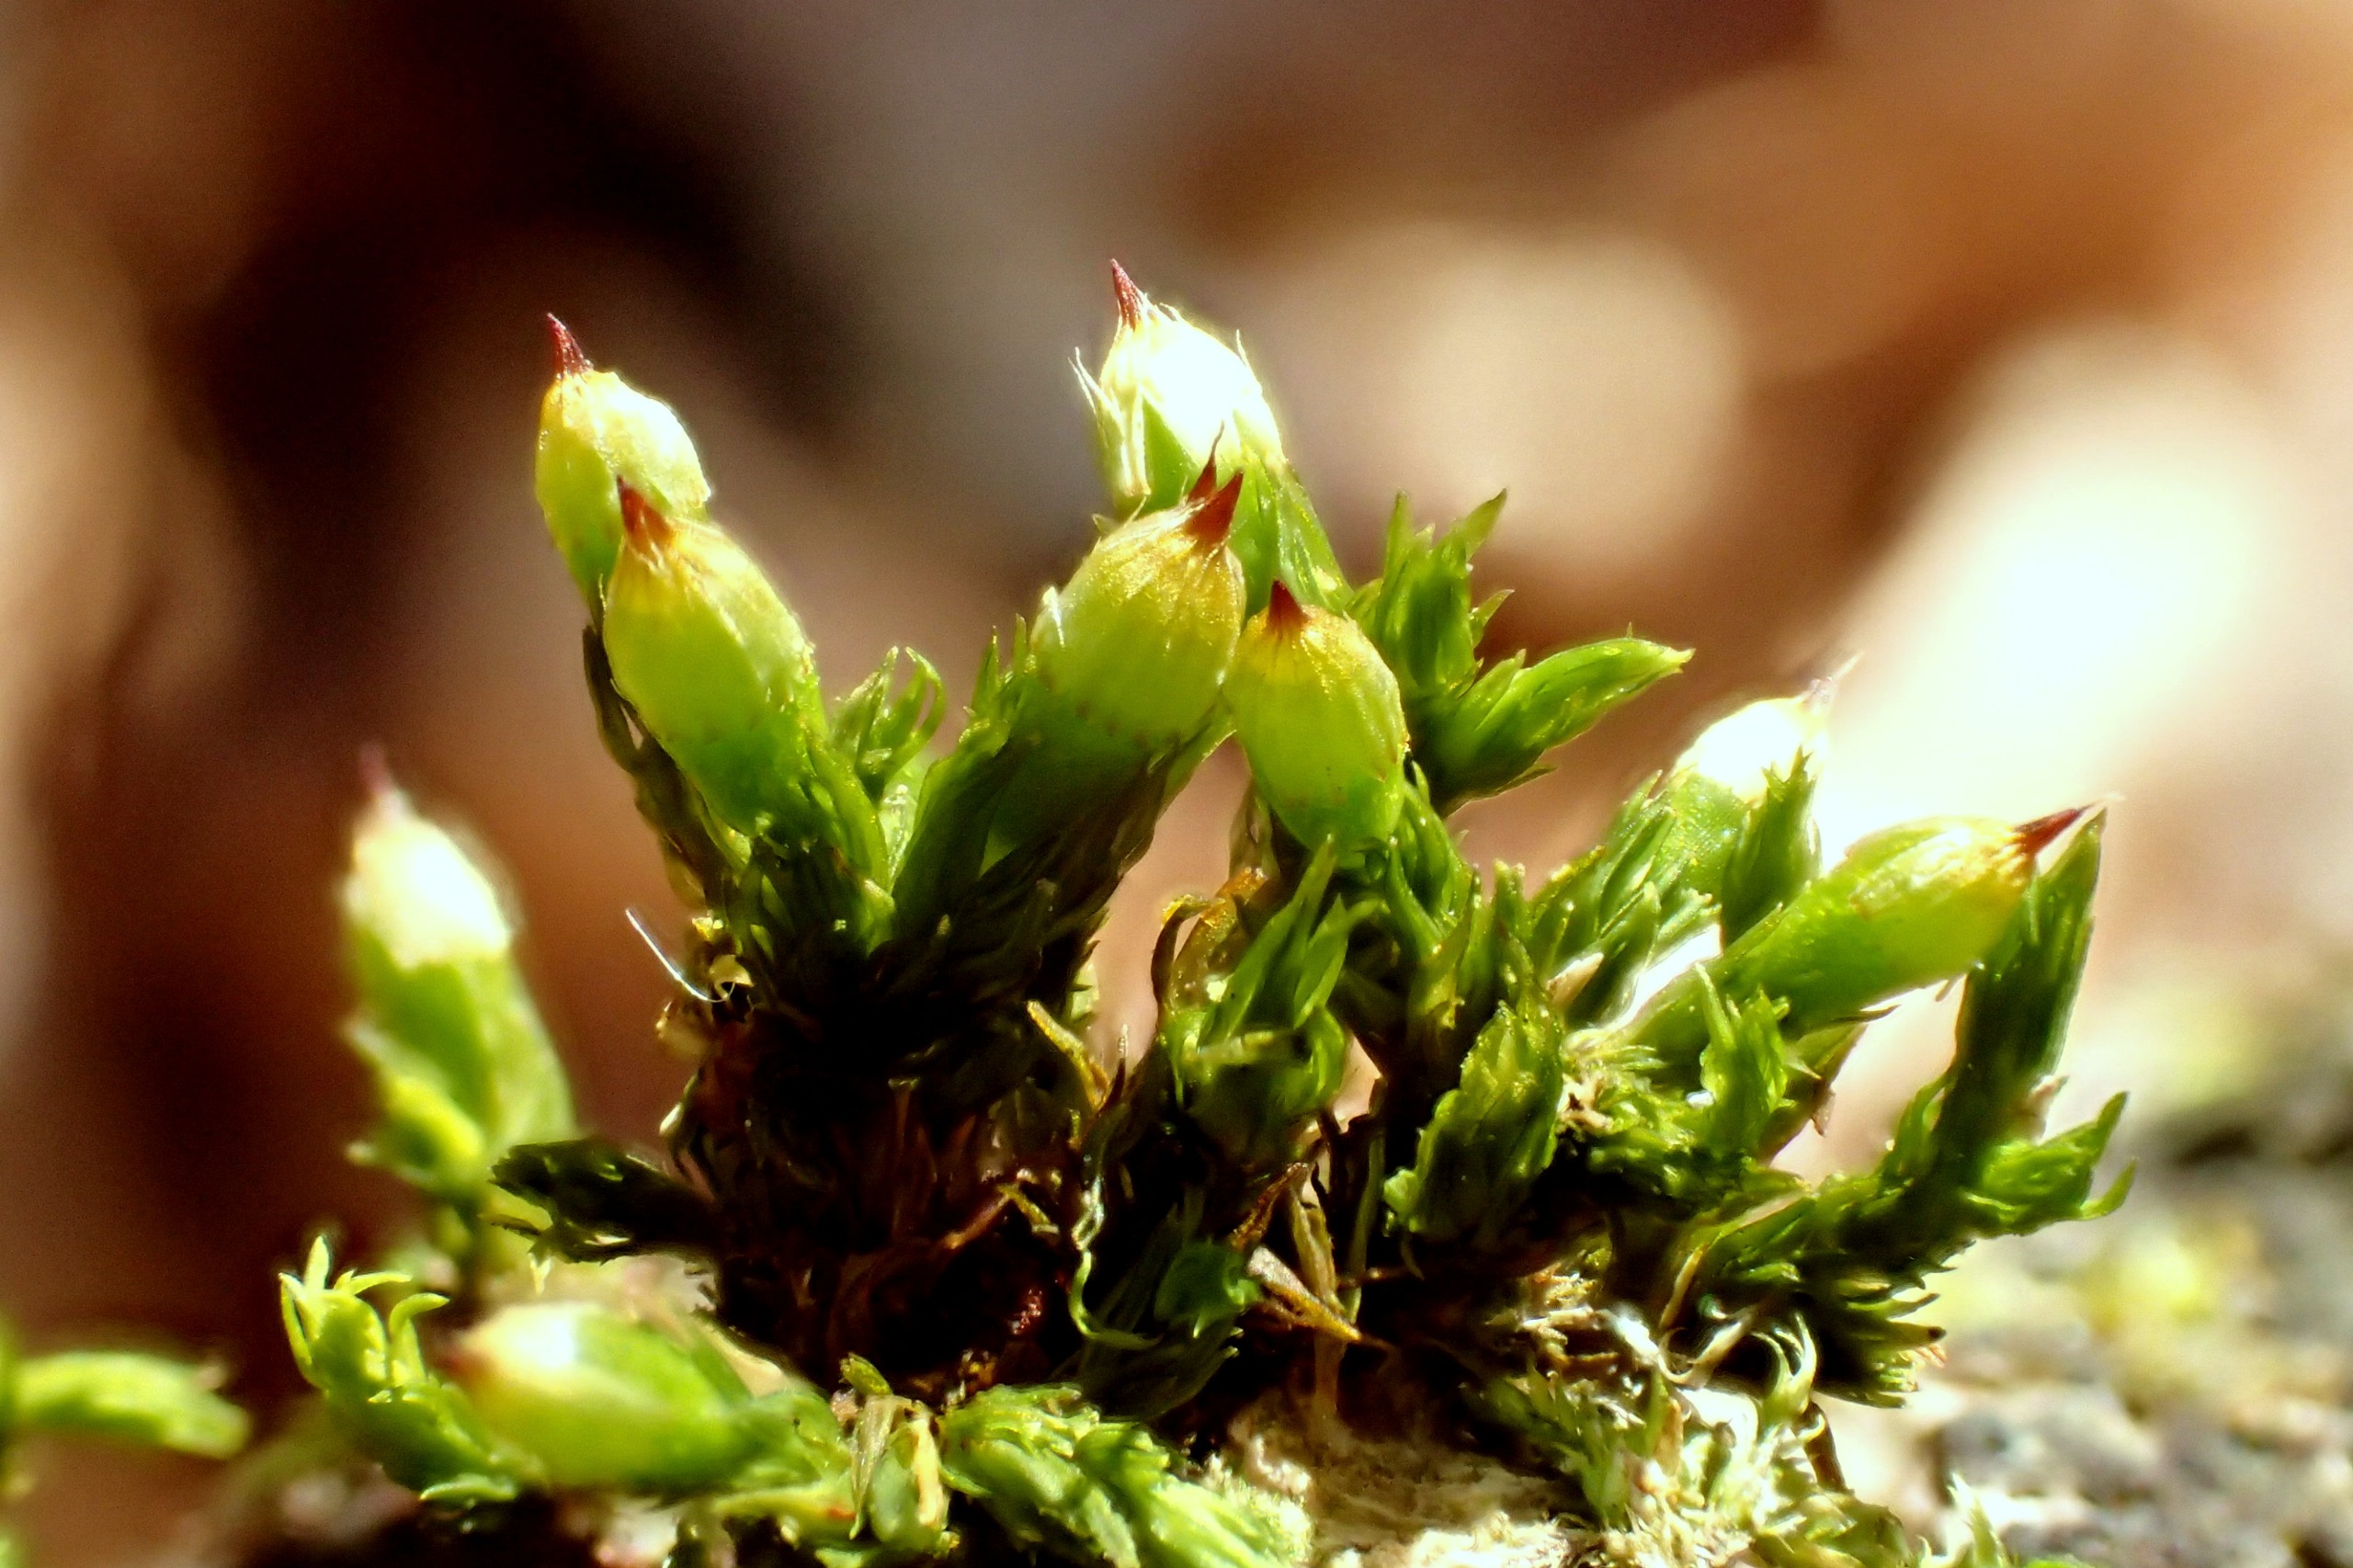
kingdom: Plantae
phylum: Bryophyta
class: Bryopsida
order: Orthotrichales
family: Orthotrichaceae
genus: Orthotrichum
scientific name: Orthotrichum stramineum
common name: Strågul furehætte
